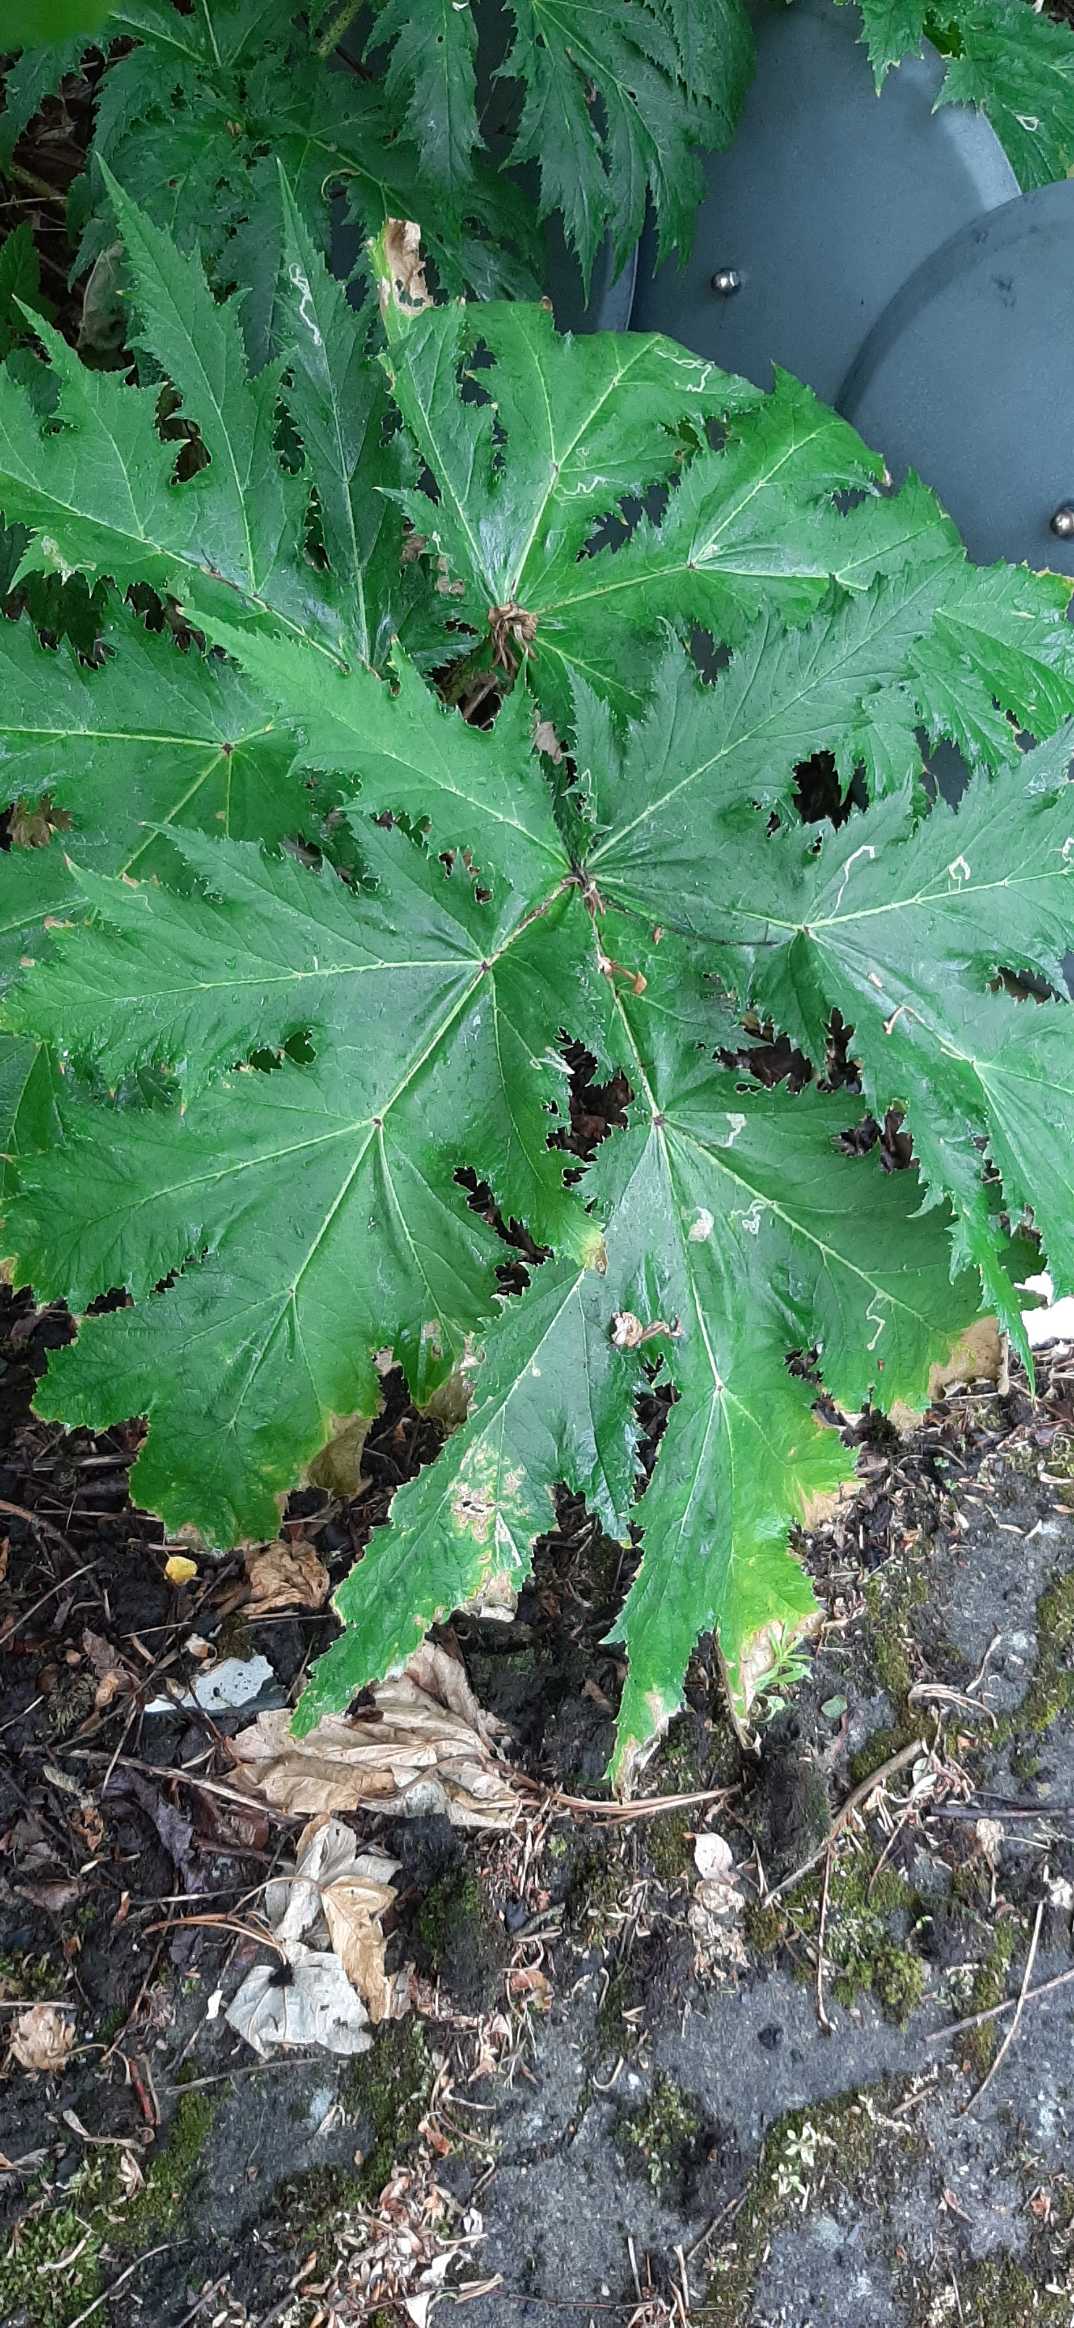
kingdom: Plantae
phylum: Tracheophyta
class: Magnoliopsida
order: Apiales
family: Apiaceae
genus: Heracleum
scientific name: Heracleum mantegazzianum
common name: Kæmpe-bjørneklo
